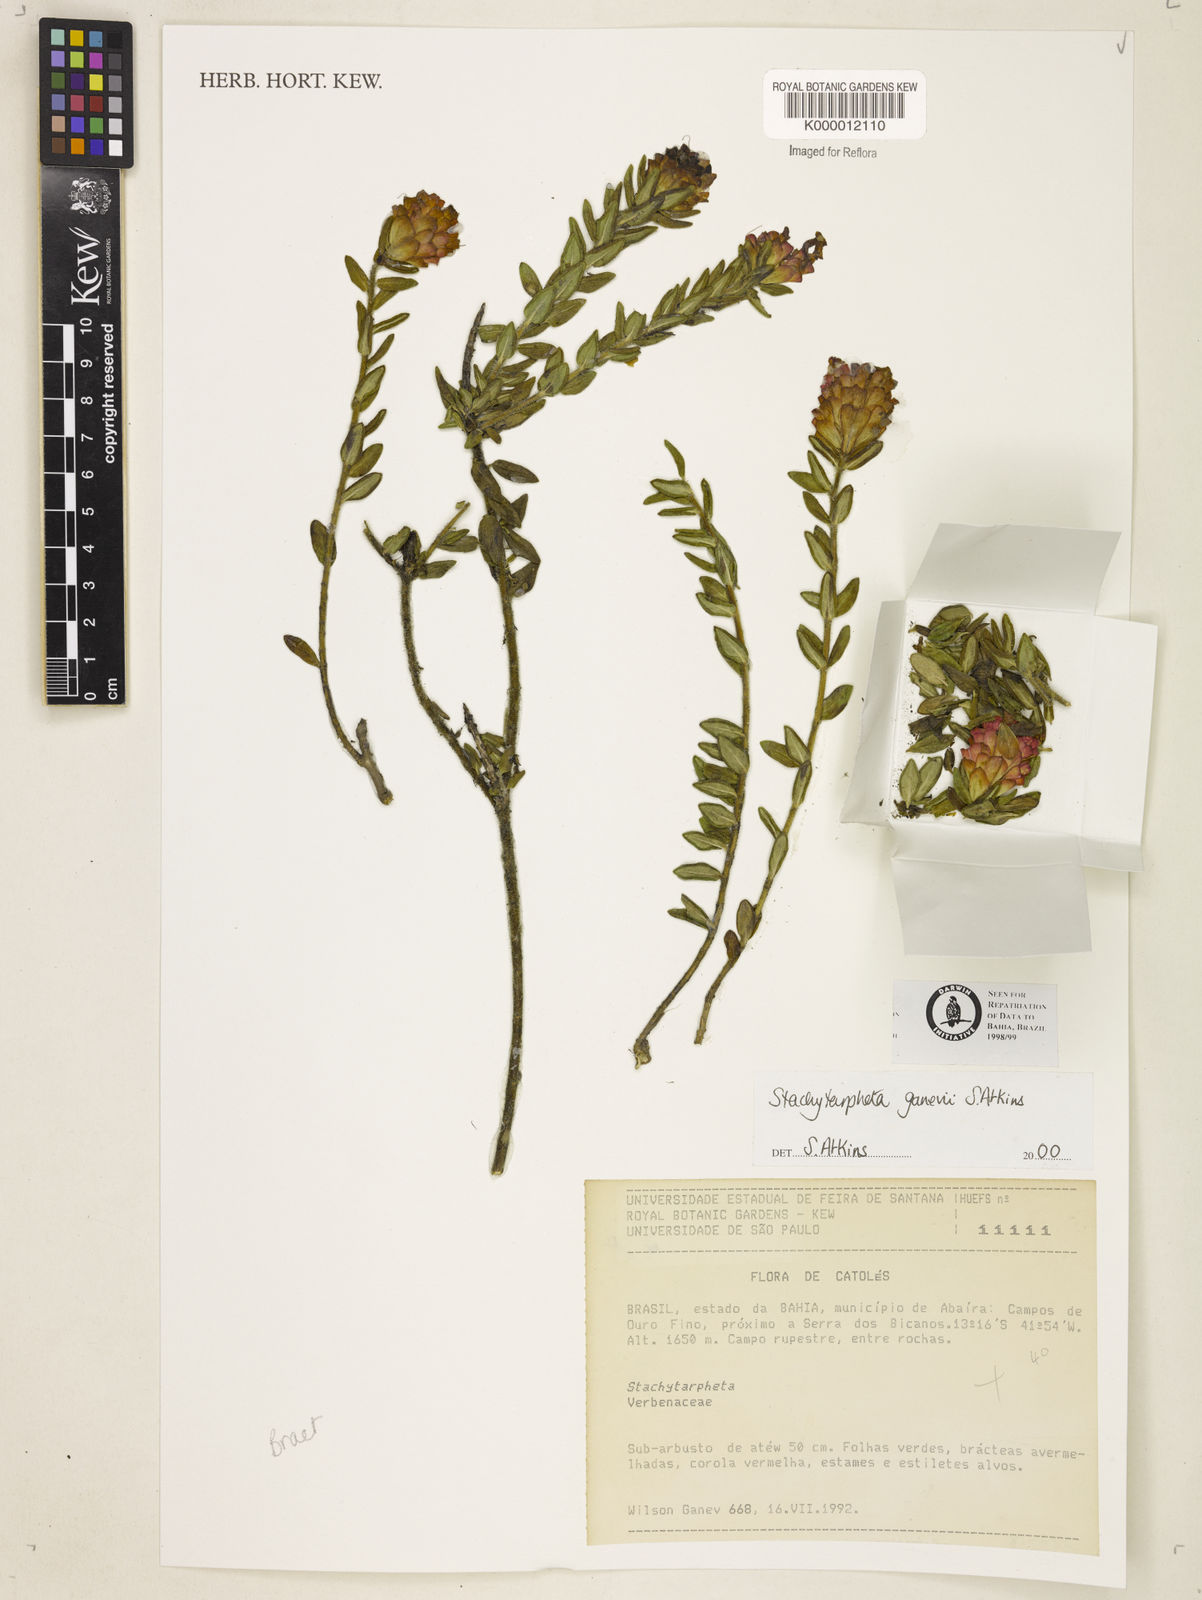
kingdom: Plantae
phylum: Tracheophyta
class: Magnoliopsida
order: Lamiales
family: Verbenaceae
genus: Stachytarpheta
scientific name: Stachytarpheta ganevii
